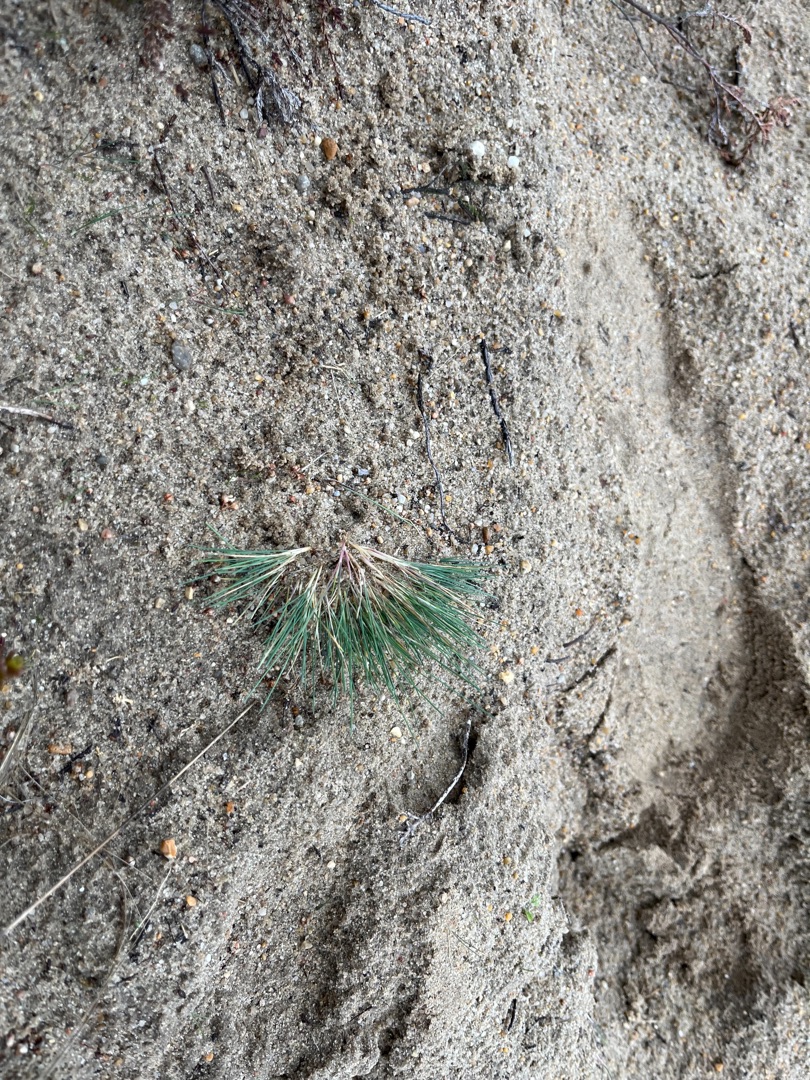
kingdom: Plantae
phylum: Tracheophyta
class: Liliopsida
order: Poales
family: Poaceae
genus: Corynephorus
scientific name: Corynephorus canescens
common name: Sandskæg
